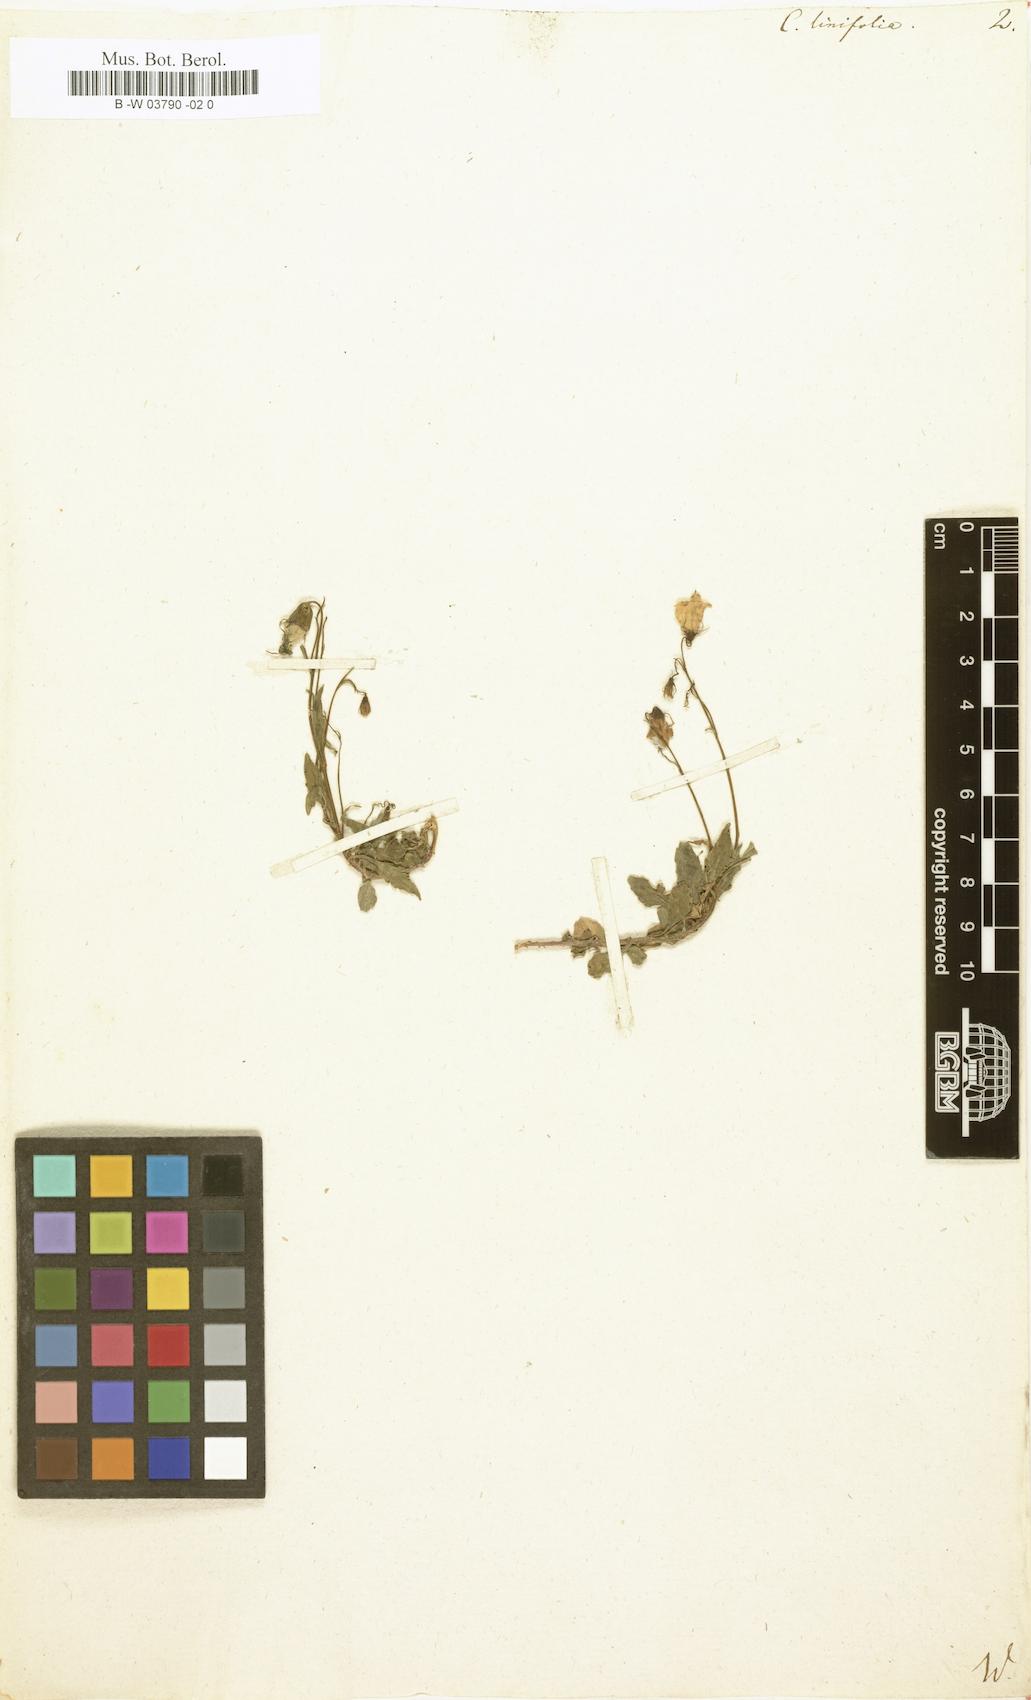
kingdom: Plantae
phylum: Tracheophyta
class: Magnoliopsida
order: Asterales
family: Campanulaceae
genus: Campanula
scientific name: Campanula
